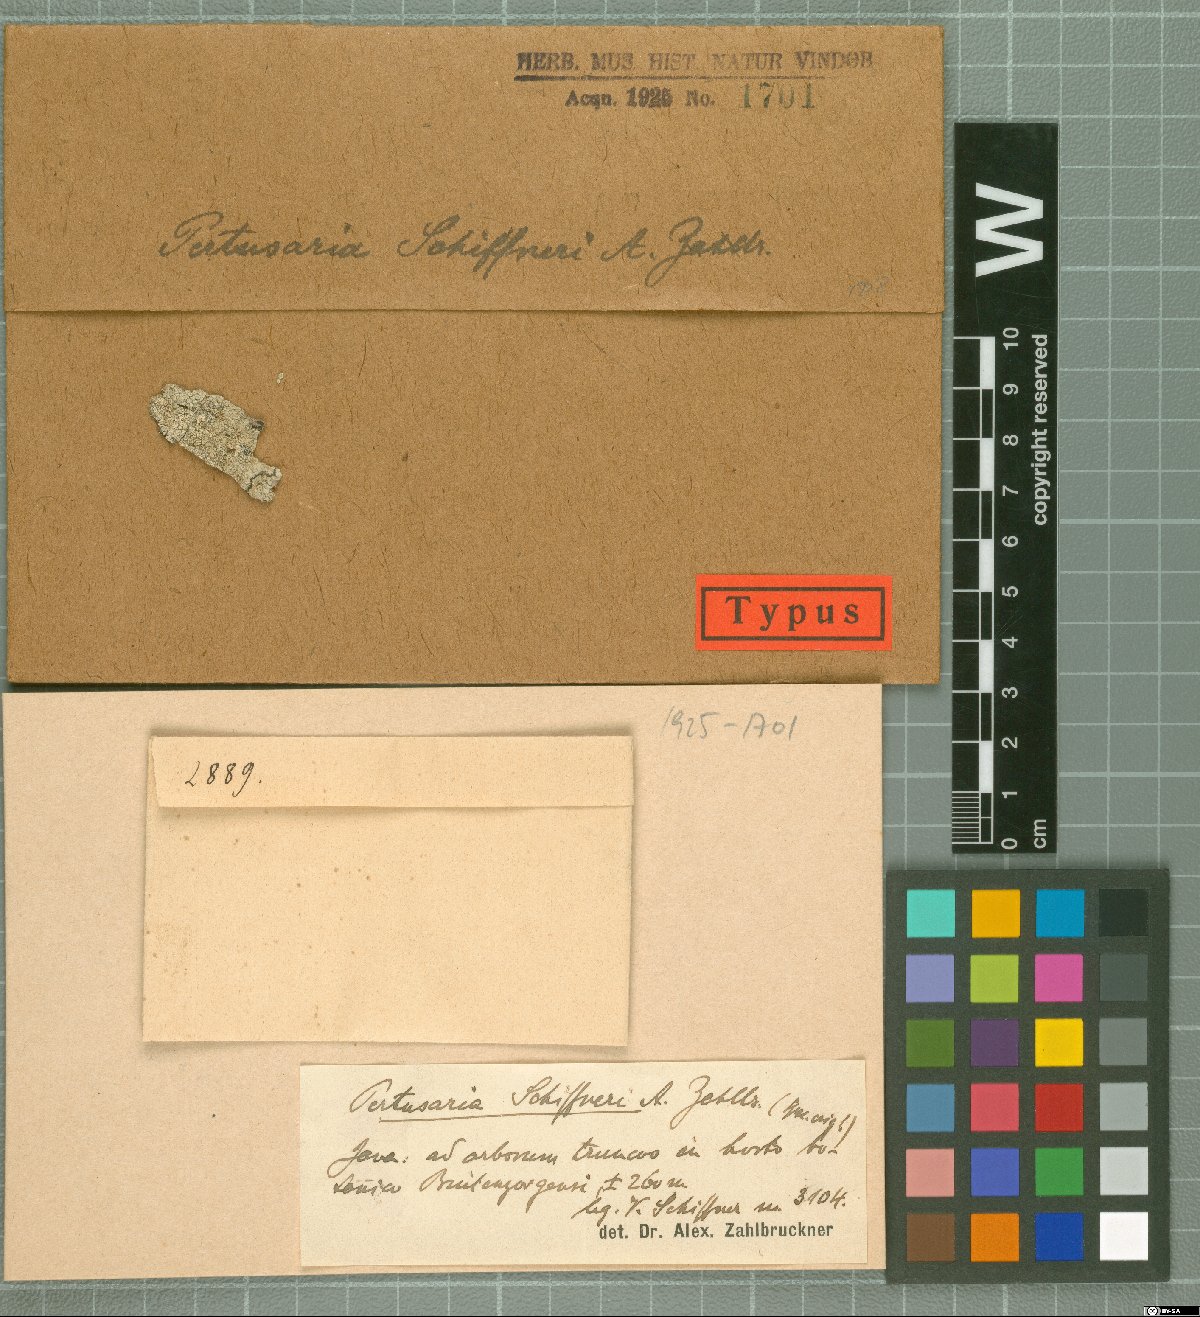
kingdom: Fungi
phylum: Ascomycota
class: Lecanoromycetes
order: Pertusariales
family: Pertusariaceae
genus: Pertusaria
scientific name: Pertusaria
